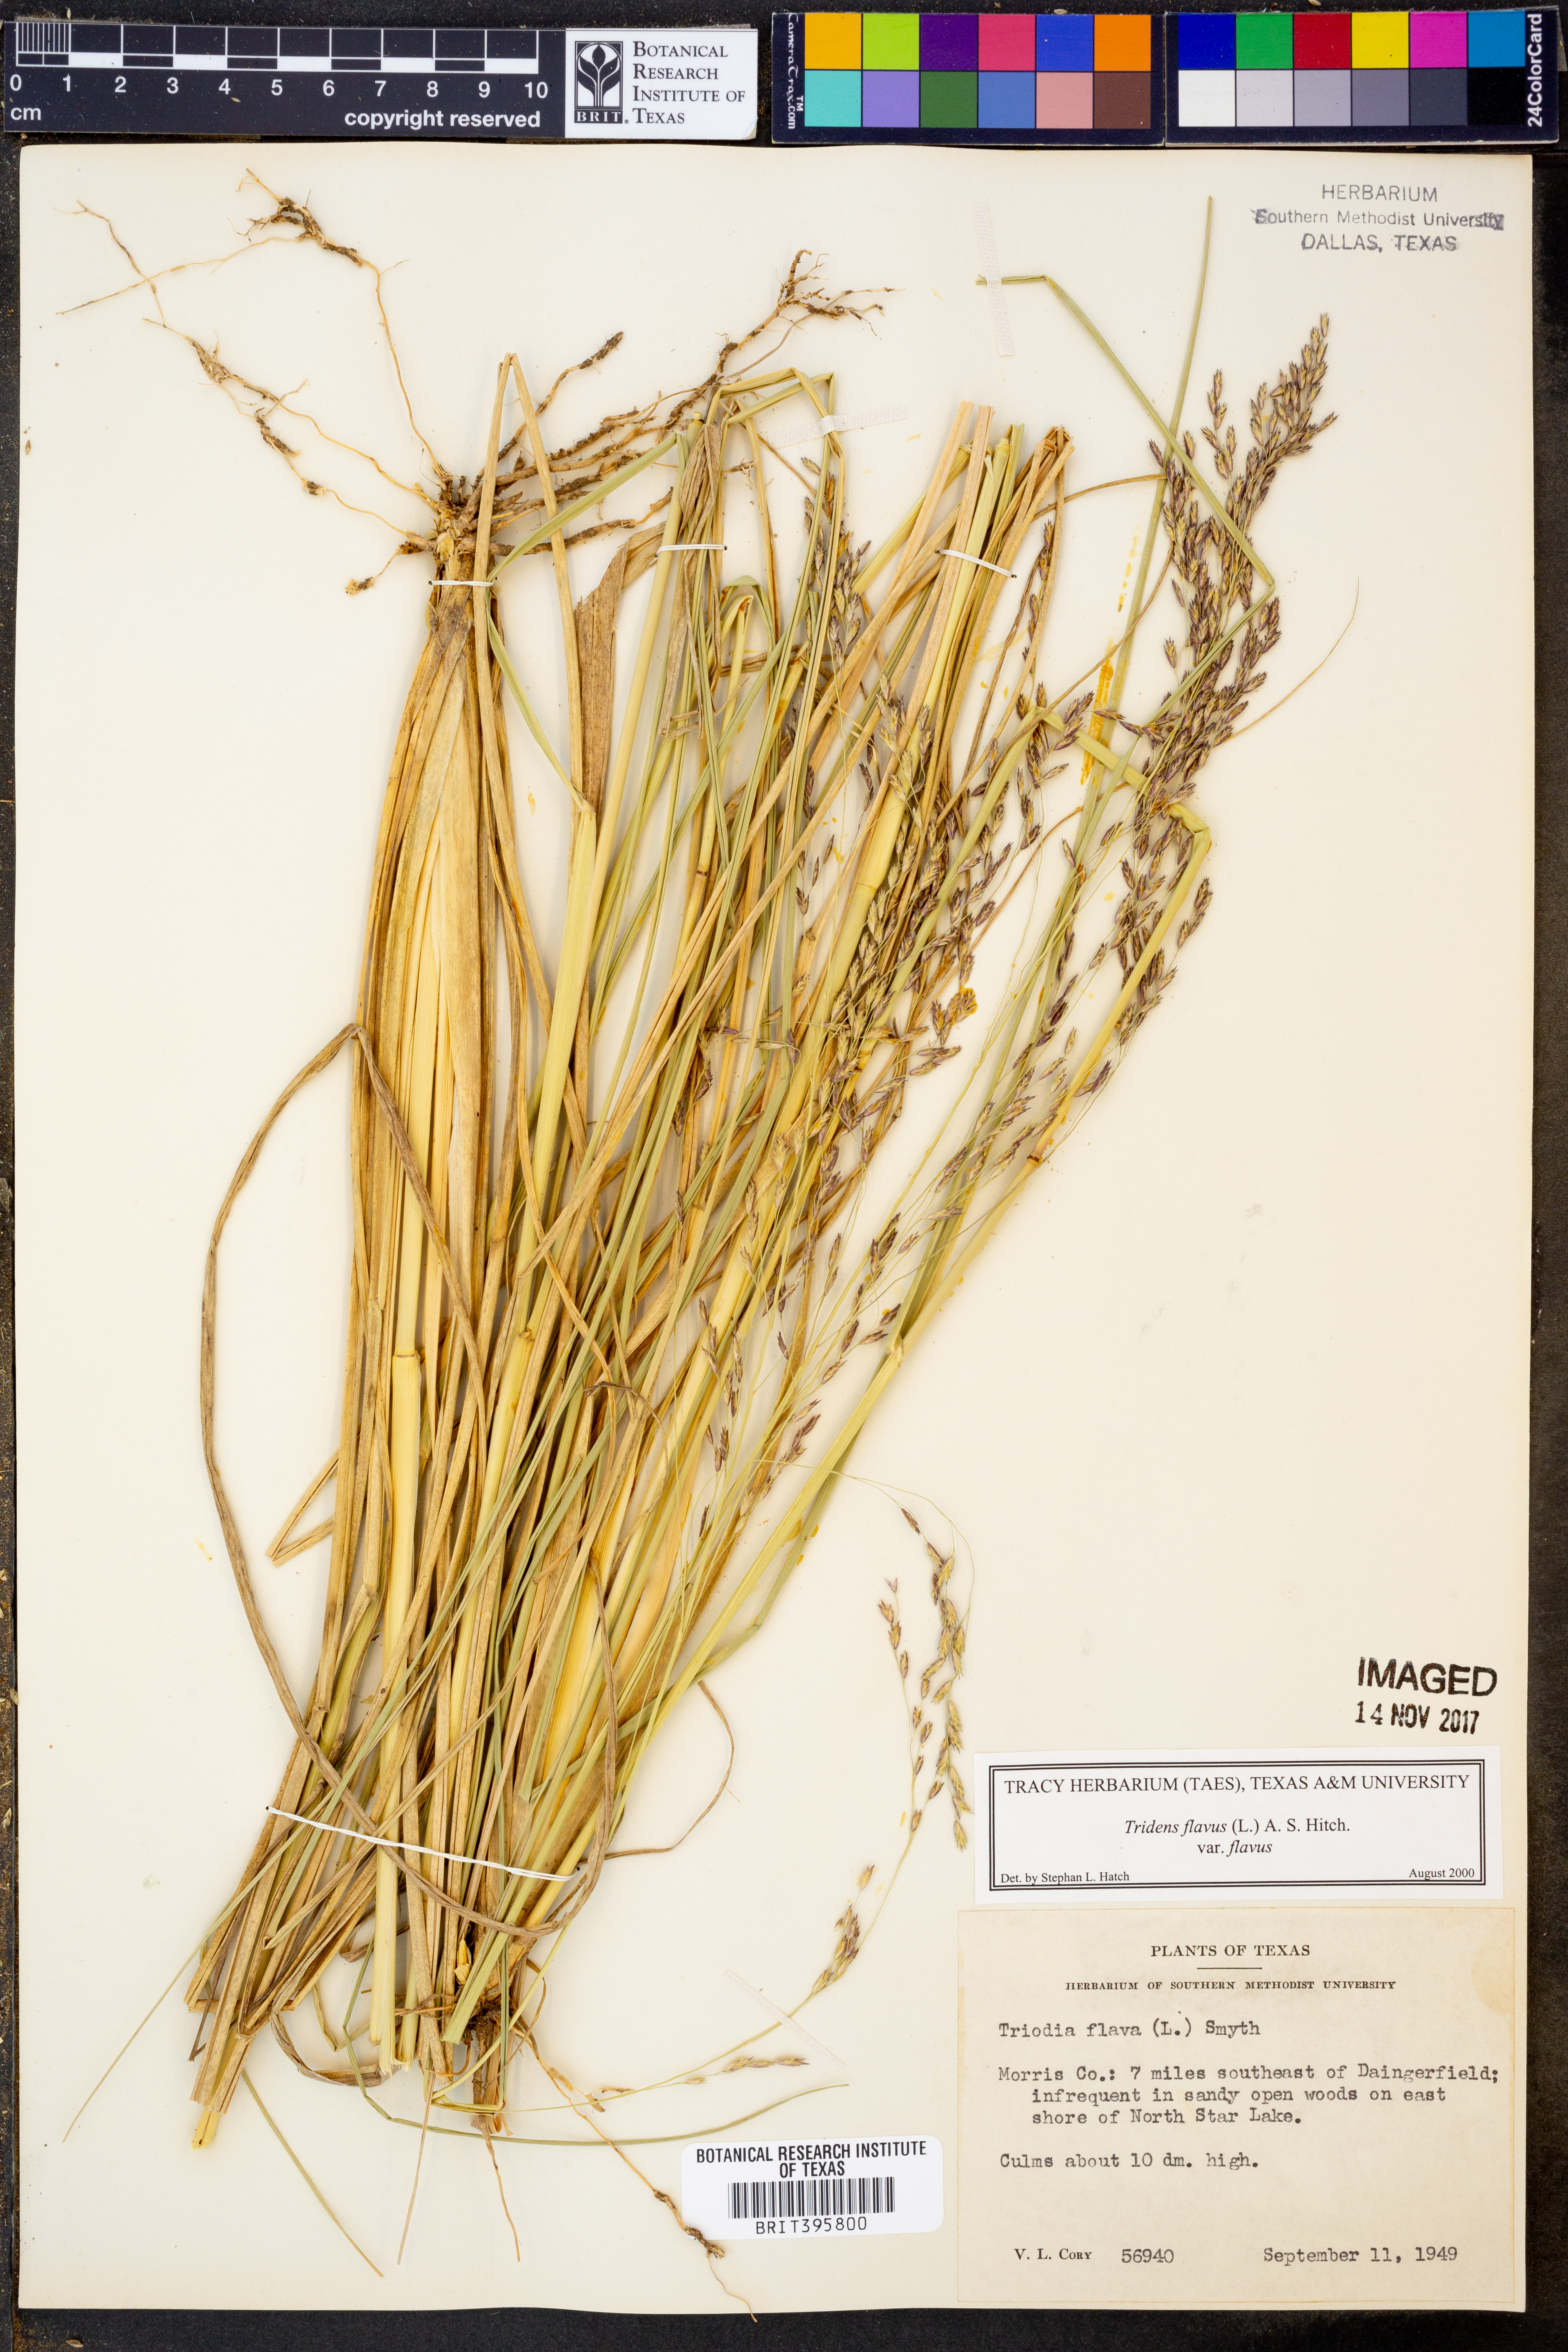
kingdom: Plantae
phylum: Tracheophyta
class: Liliopsida
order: Poales
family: Poaceae
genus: Tridens
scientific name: Tridens flavus
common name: Purpletop
